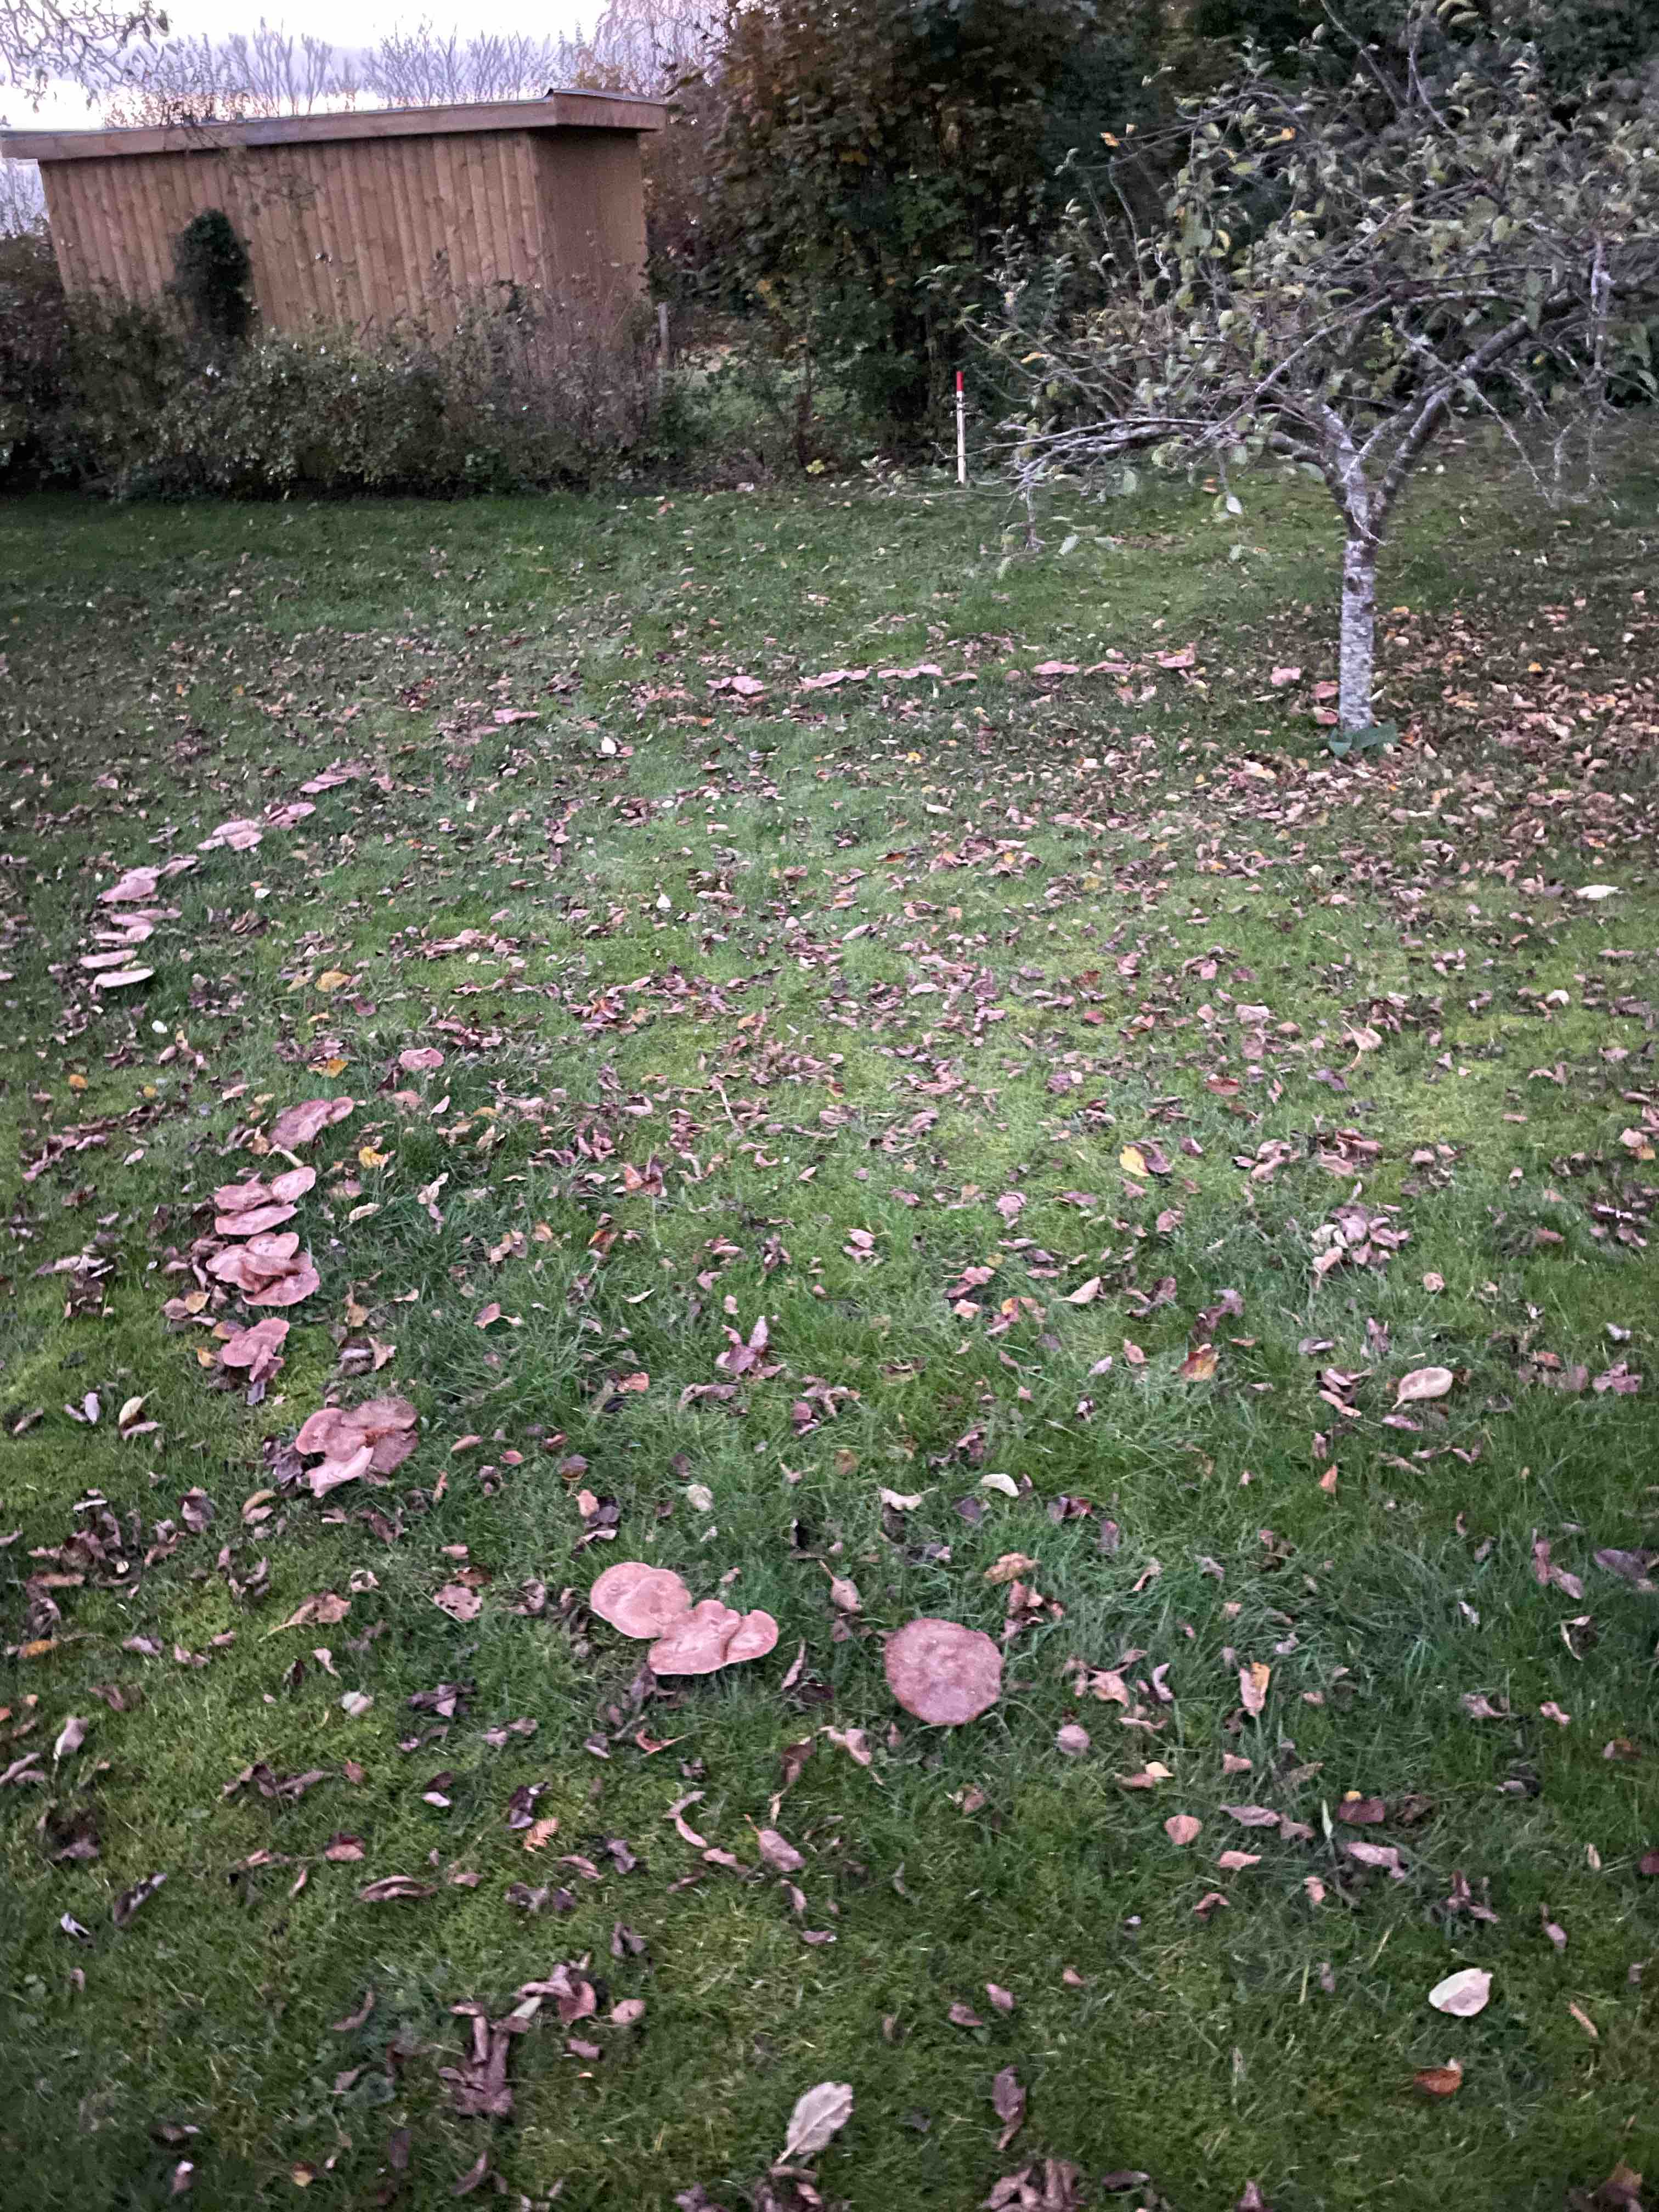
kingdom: Fungi
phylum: Basidiomycota
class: Agaricomycetes
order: Agaricales
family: Tricholomataceae
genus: Lepista
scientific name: Lepista
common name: hekseringshat
